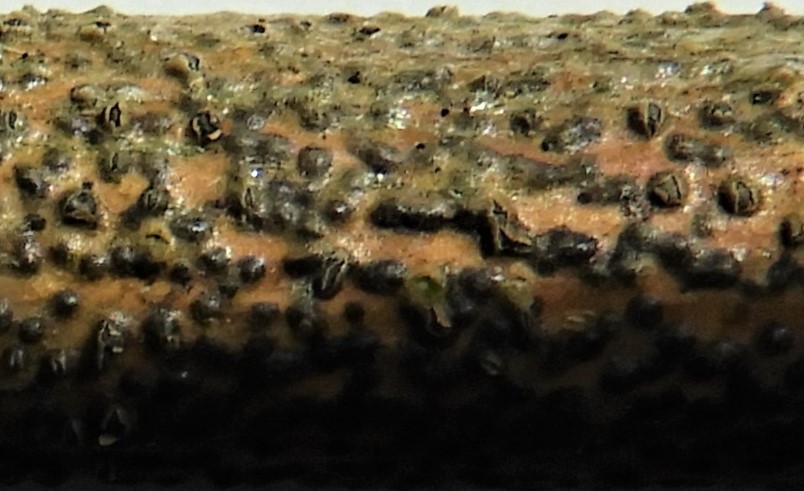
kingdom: Fungi
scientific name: Fungi
